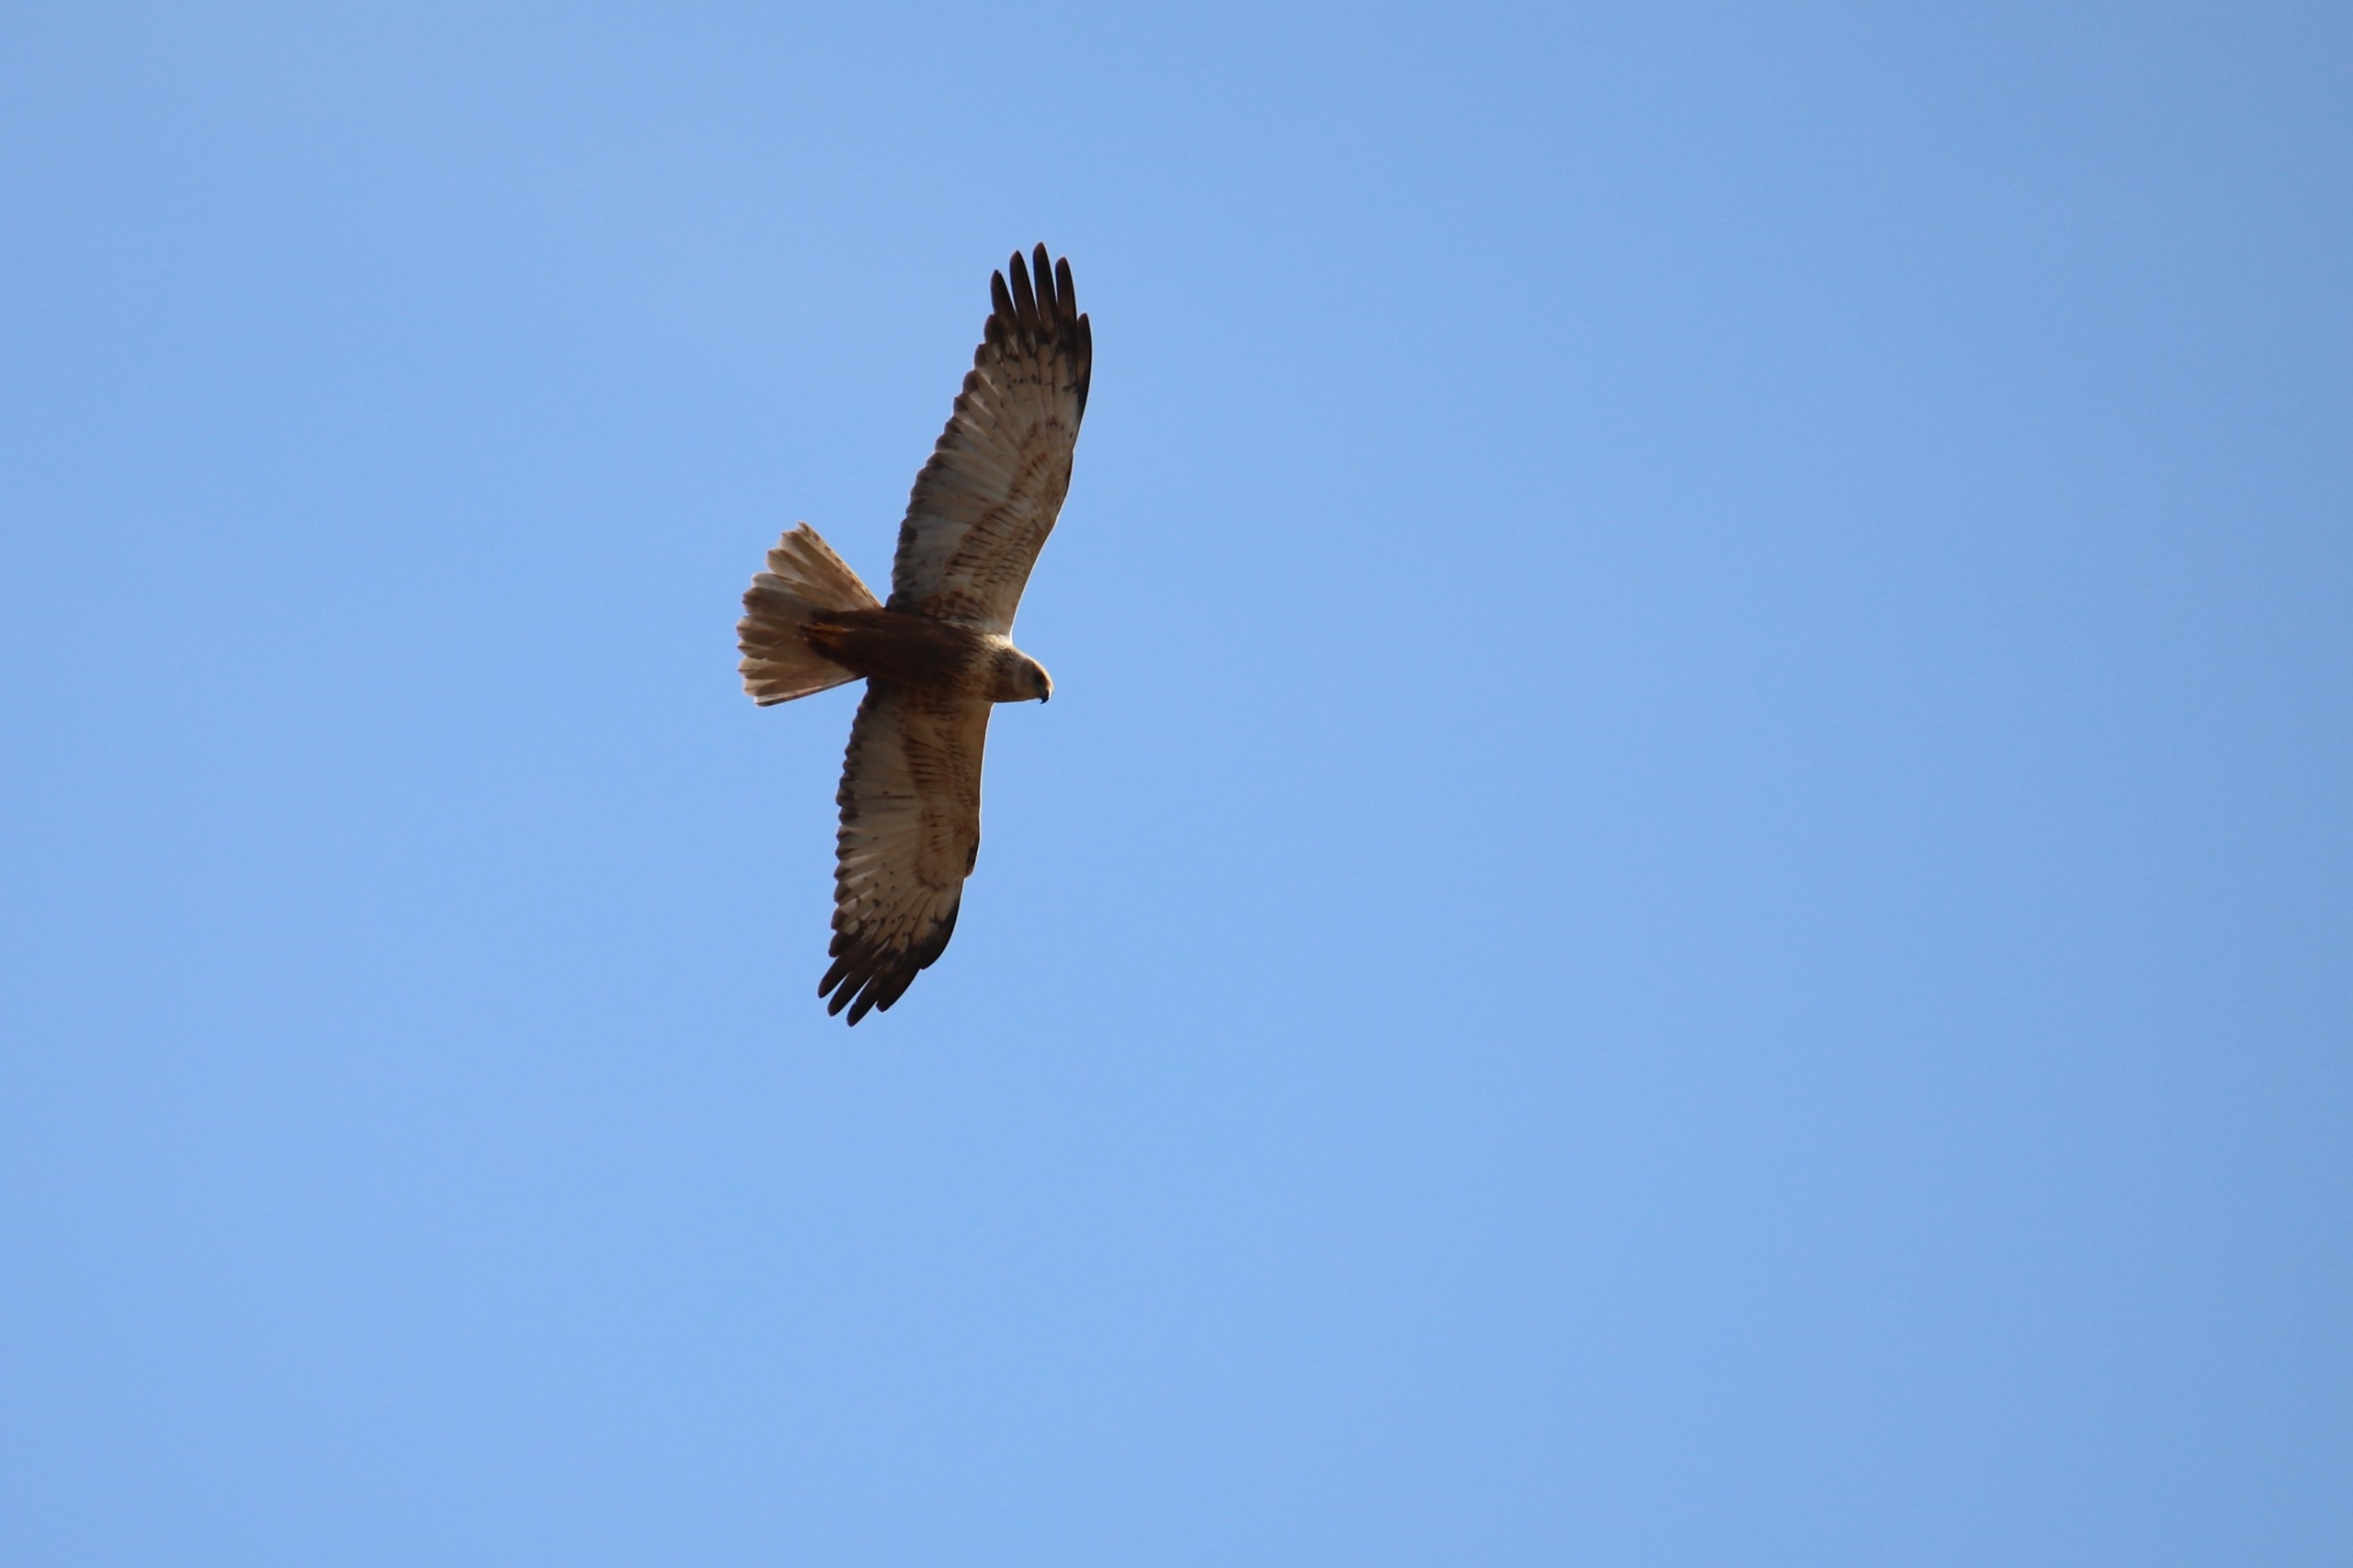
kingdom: Animalia
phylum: Chordata
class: Aves
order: Accipitriformes
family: Accipitridae
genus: Circus
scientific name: Circus aeruginosus
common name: Rørhøg
